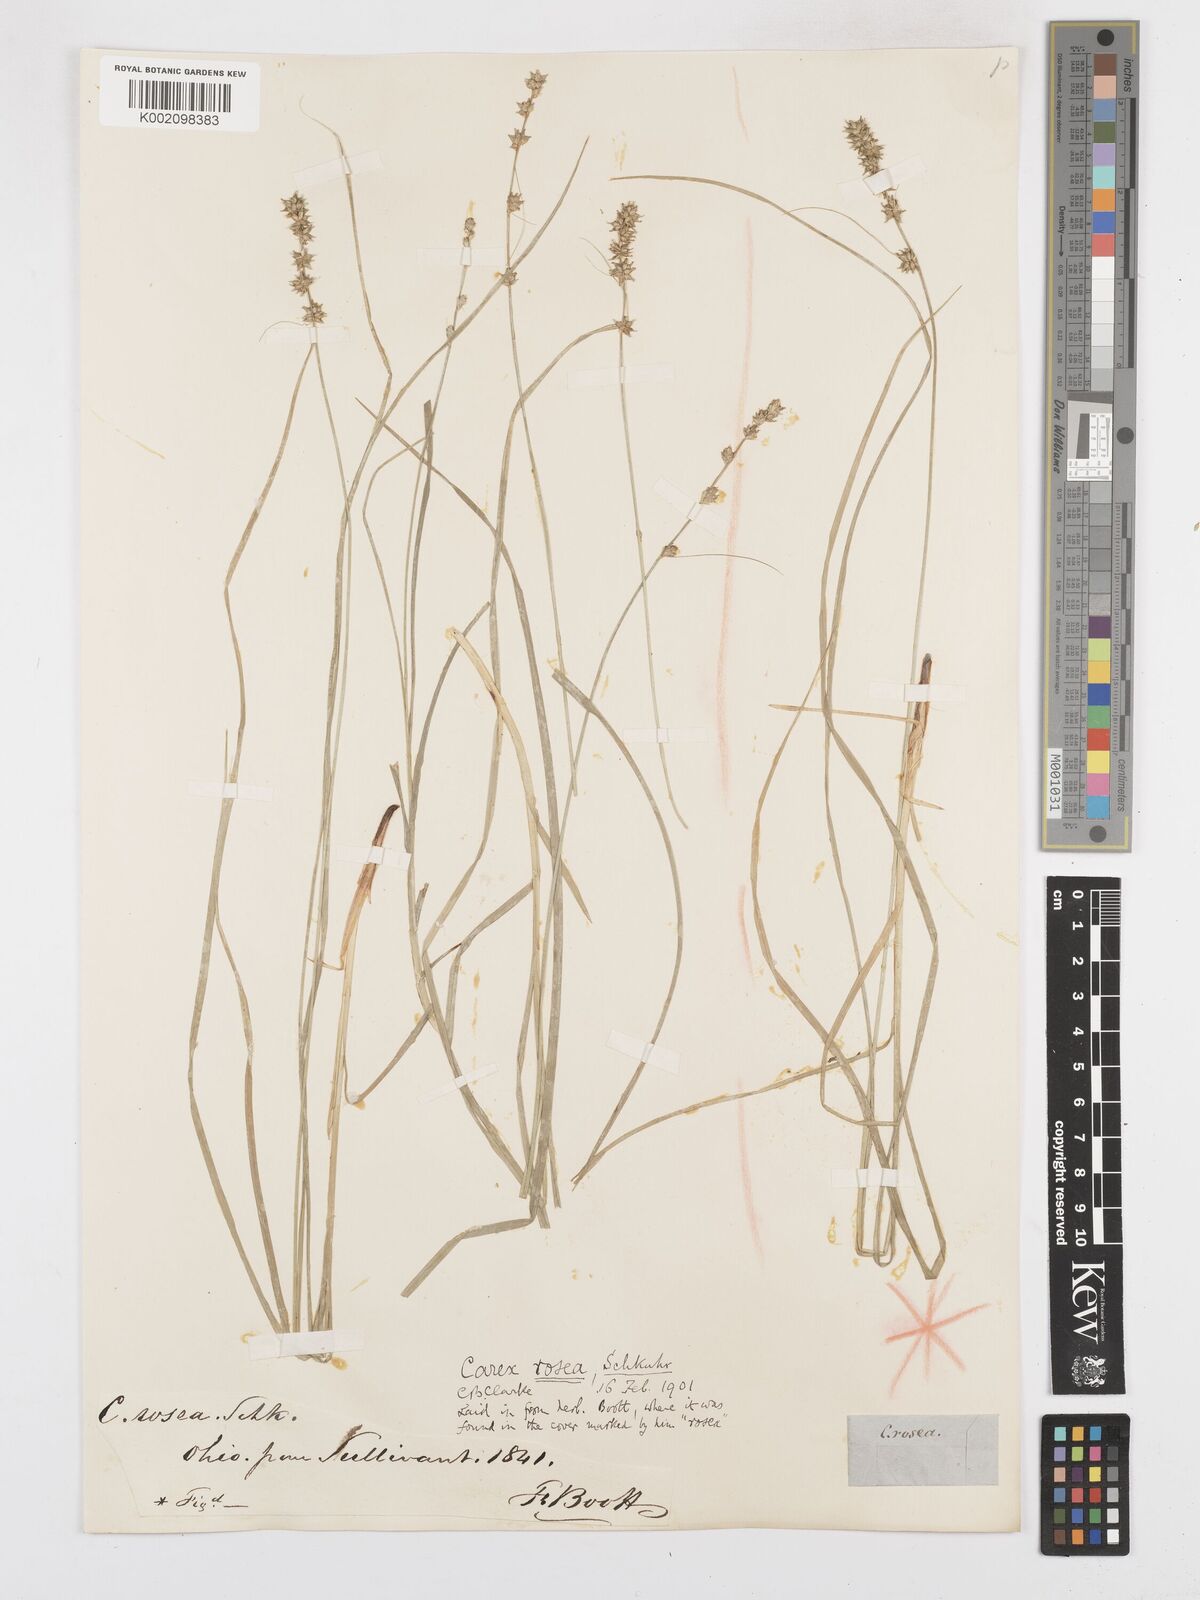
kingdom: Plantae
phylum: Tracheophyta
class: Liliopsida
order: Poales
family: Cyperaceae
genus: Carex
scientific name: Carex rosea
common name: Curly-styled wood sedge
